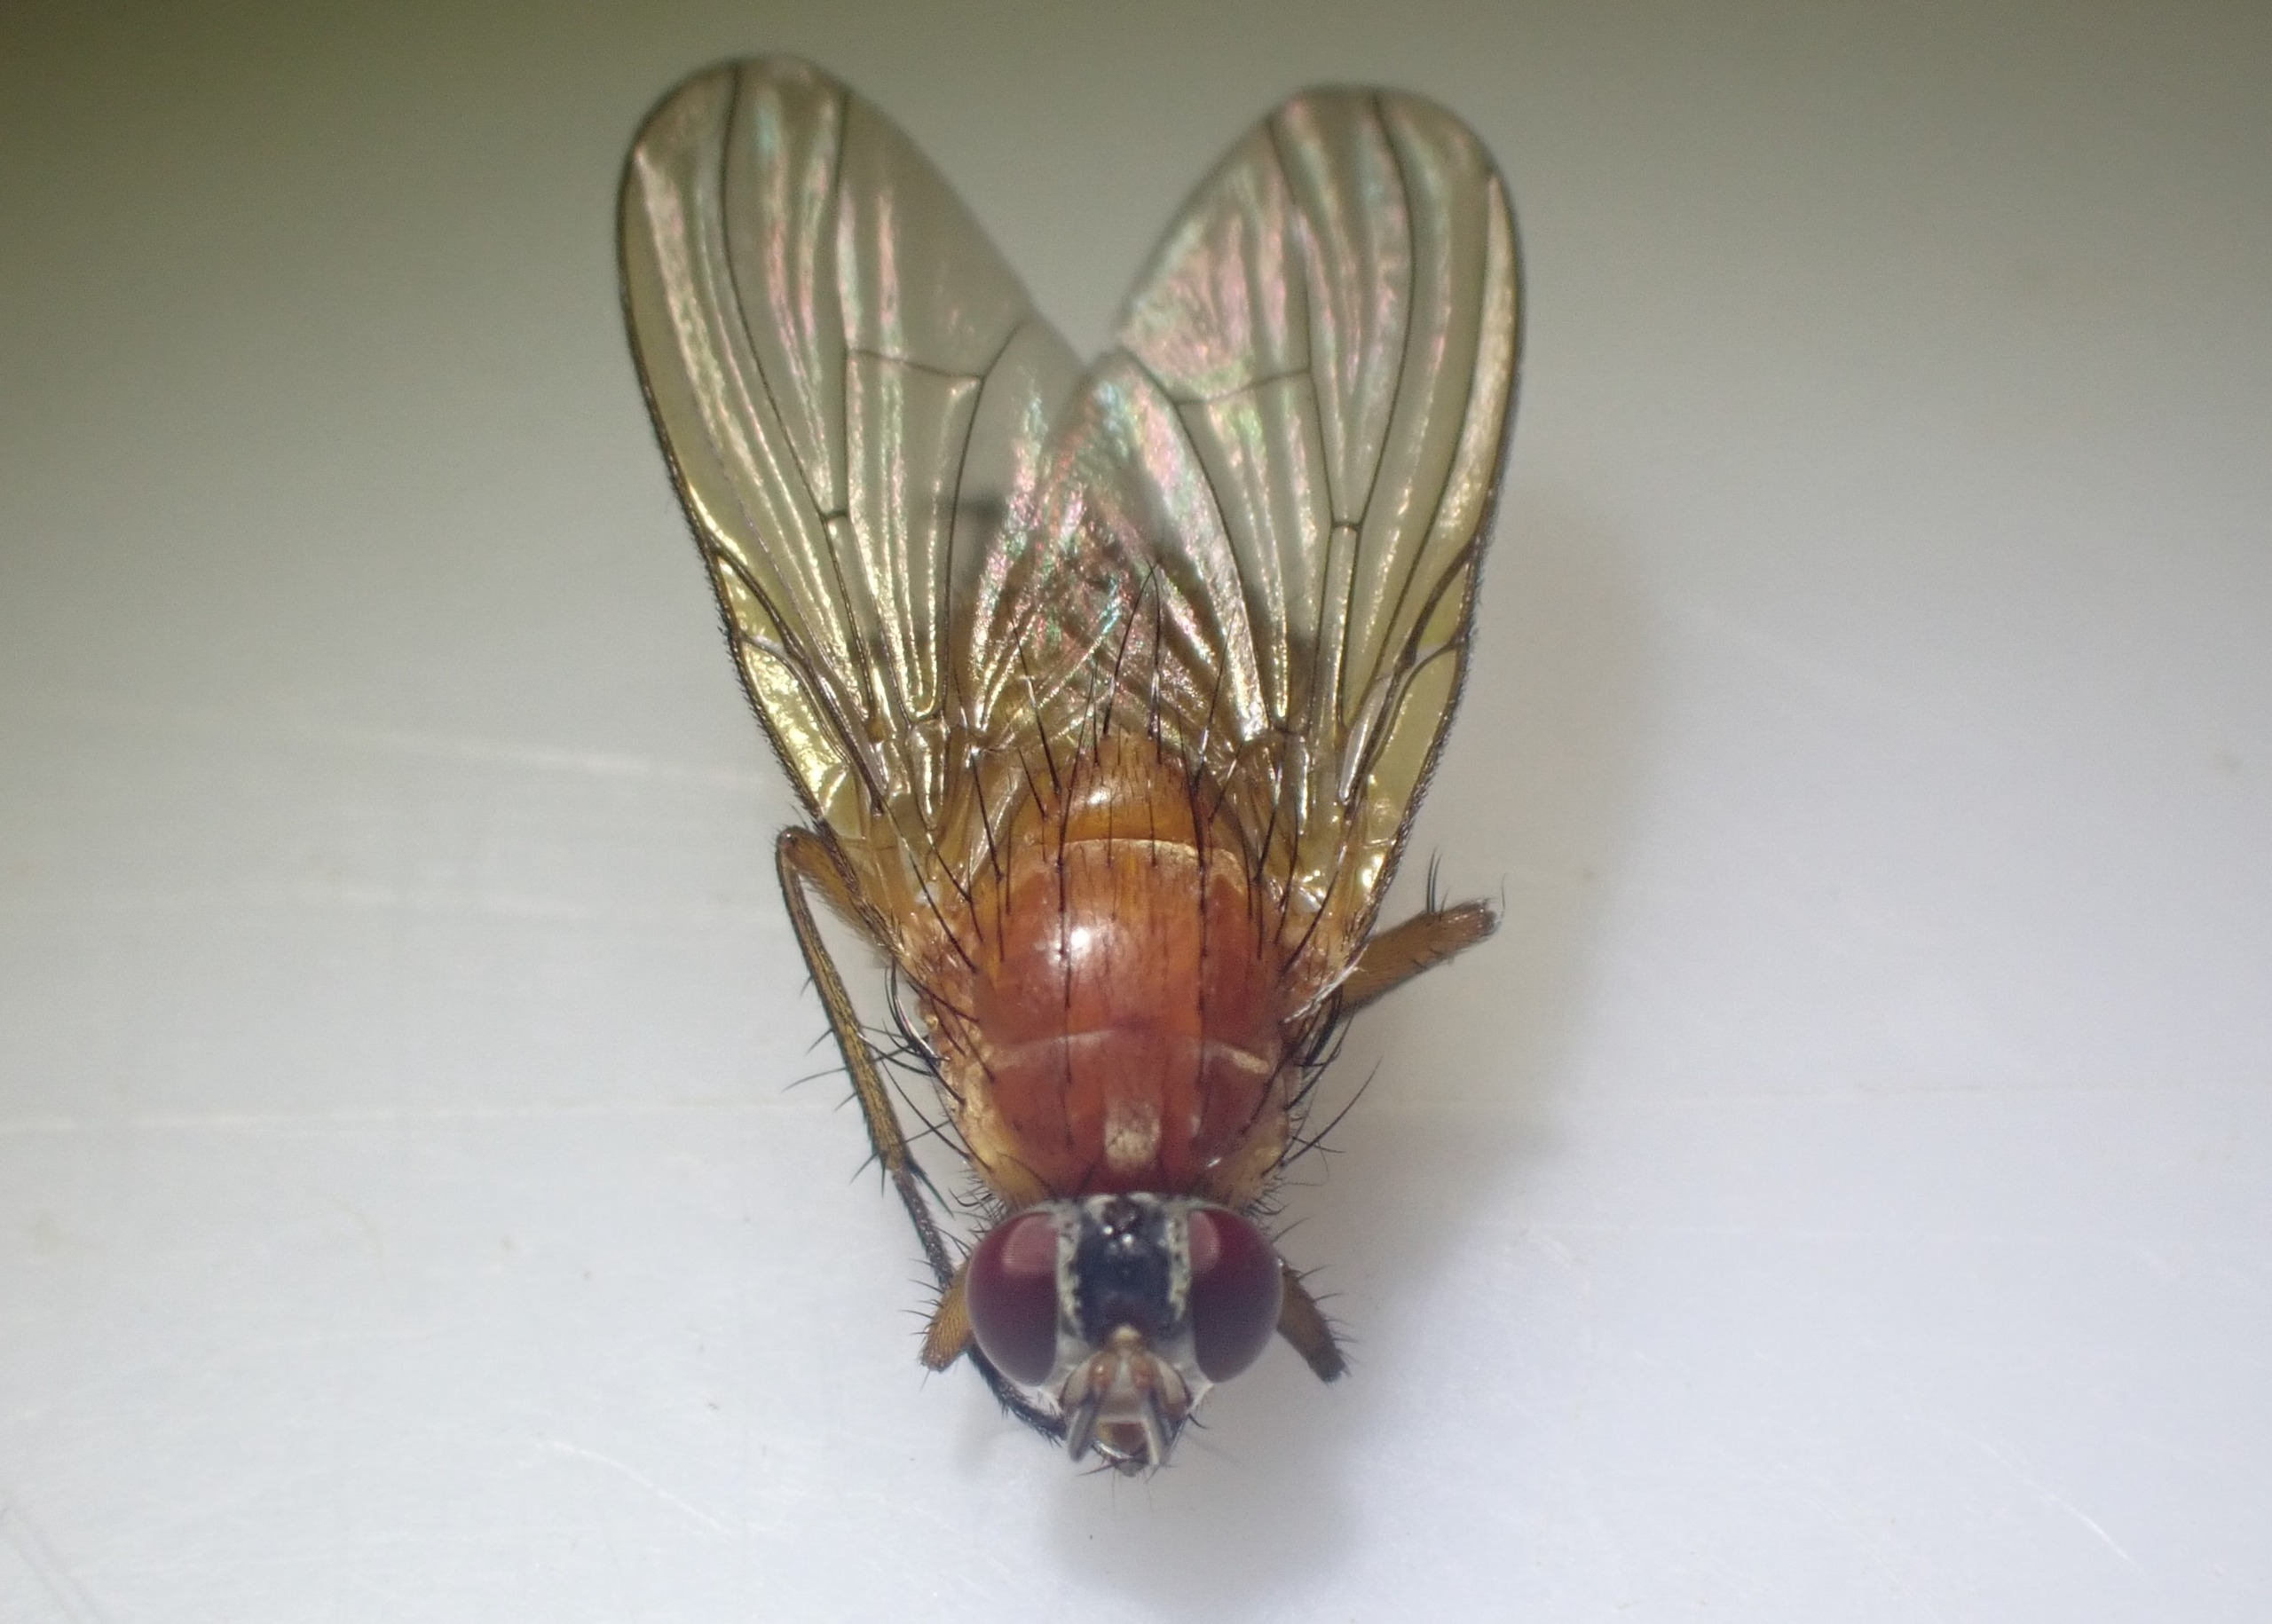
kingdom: Animalia
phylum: Arthropoda
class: Insecta
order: Diptera
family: Muscidae
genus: Thricops
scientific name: Thricops diaphanus
